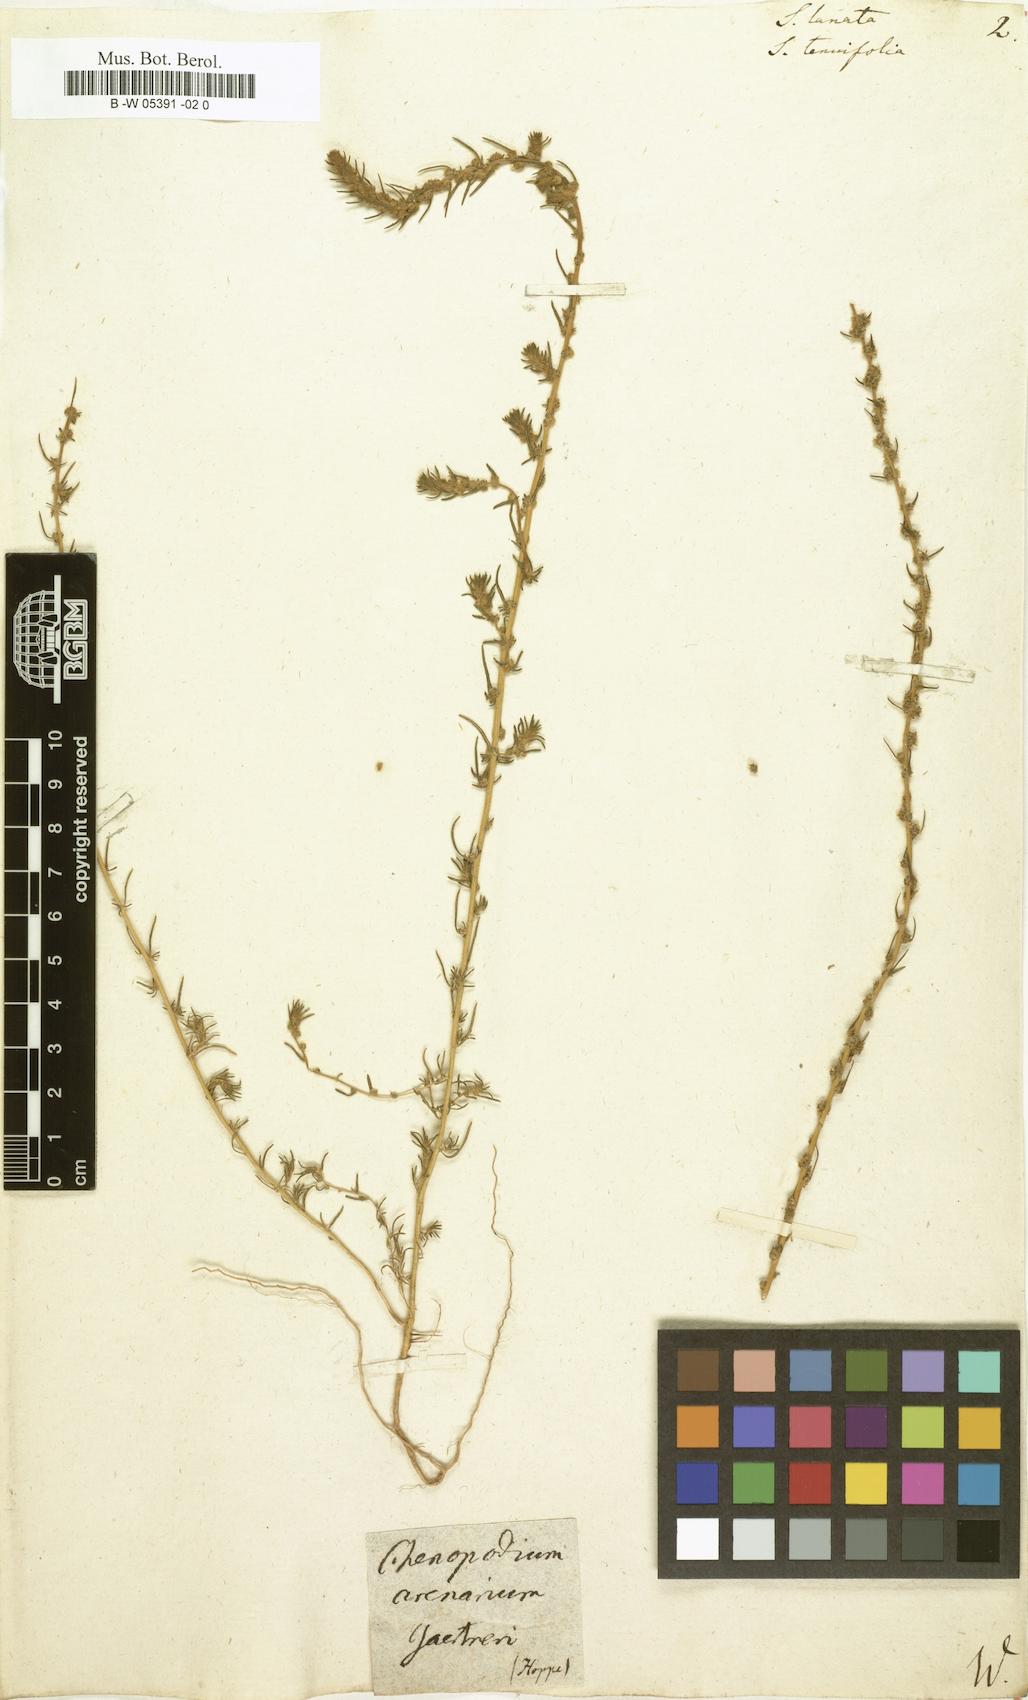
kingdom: Plantae
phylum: Tracheophyta
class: Magnoliopsida
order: Caryophyllales
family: Amaranthaceae
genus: Climacoptera
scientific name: Climacoptera lanata
